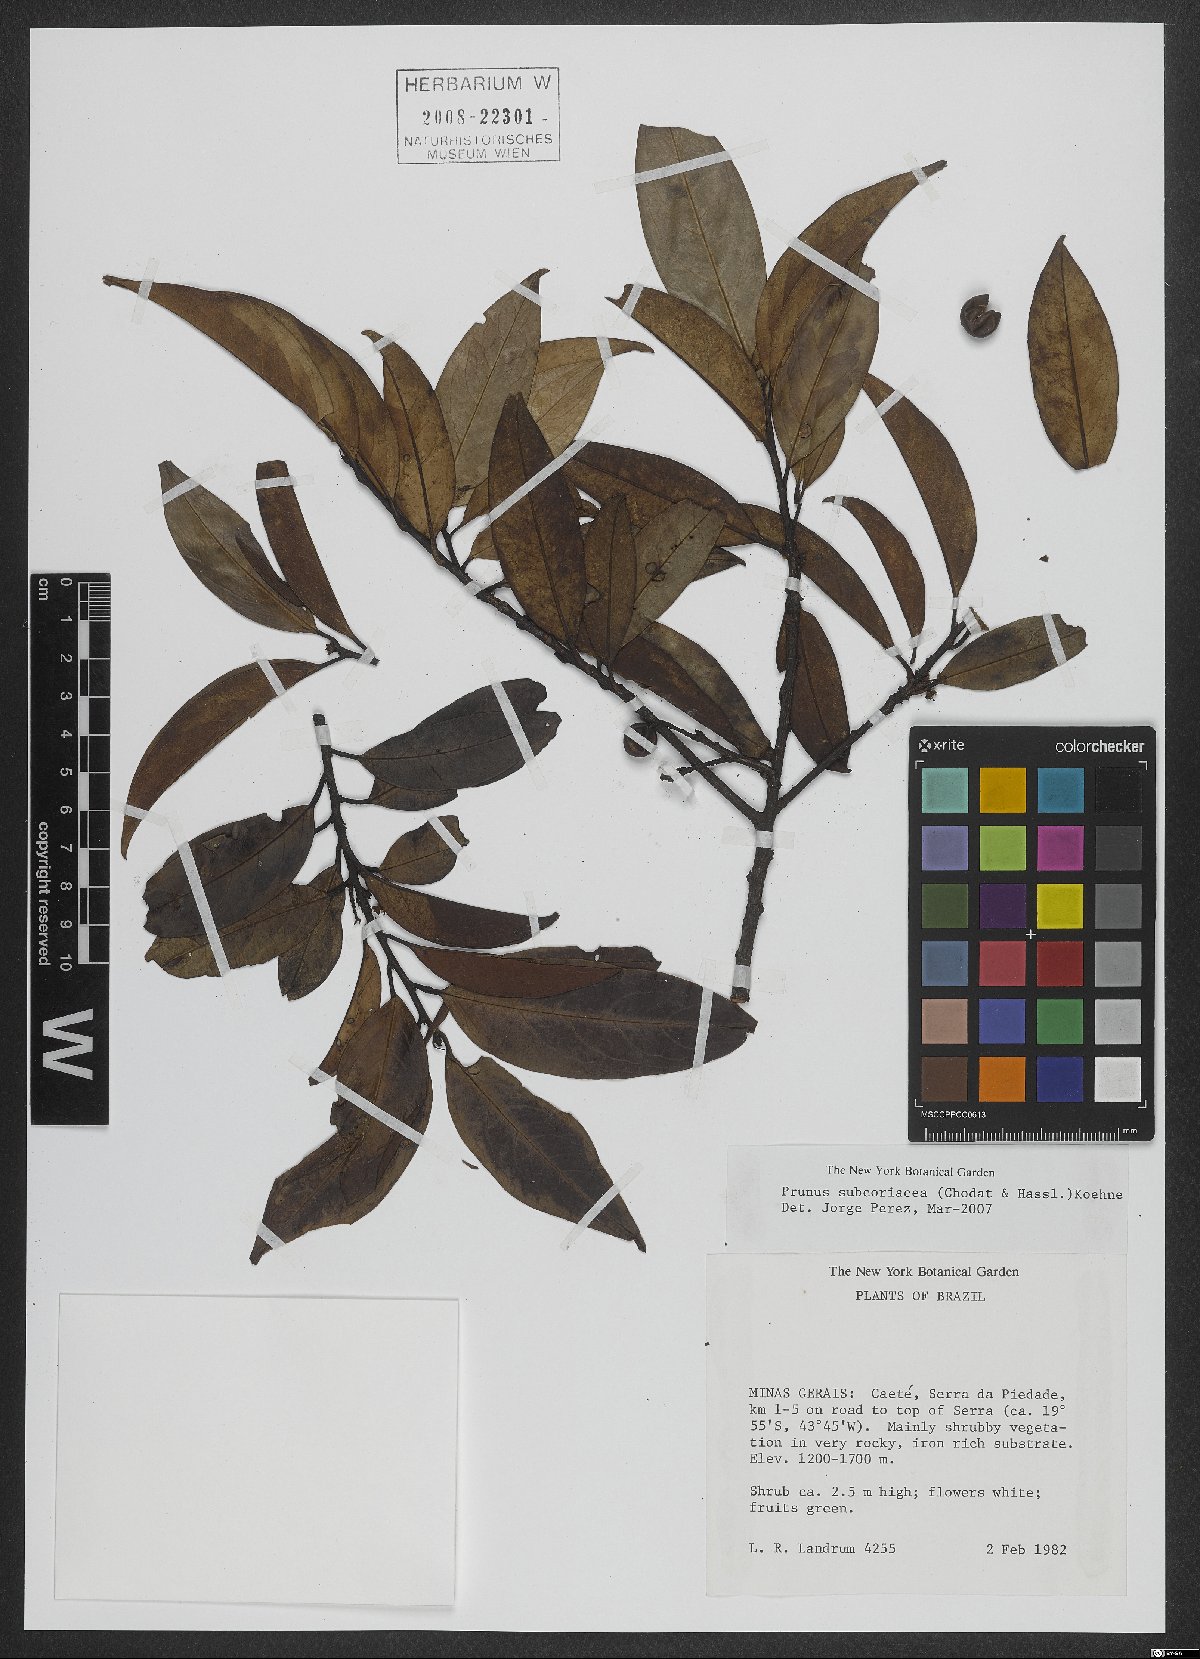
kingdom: Plantae
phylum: Tracheophyta
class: Magnoliopsida
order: Rosales
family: Rosaceae
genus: Prunus
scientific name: Prunus subcoriacea
